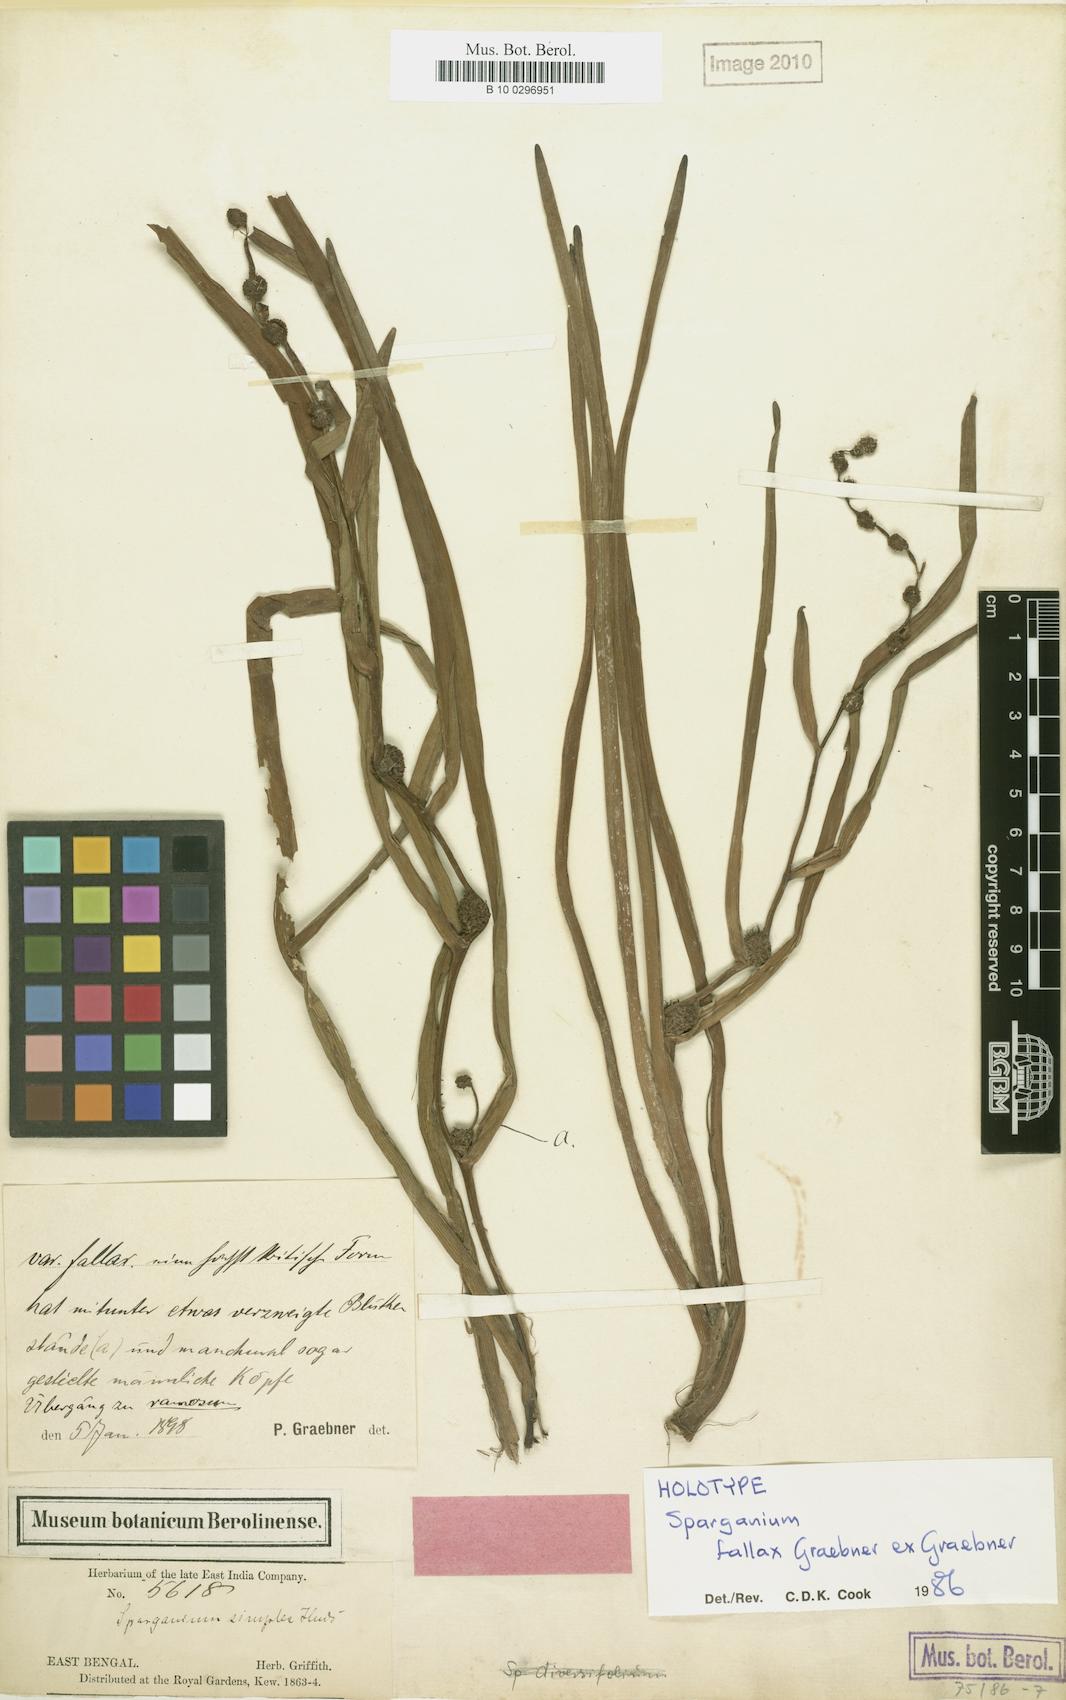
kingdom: Plantae
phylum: Tracheophyta
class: Liliopsida
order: Poales
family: Typhaceae
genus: Sparganium
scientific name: Sparganium fallax
